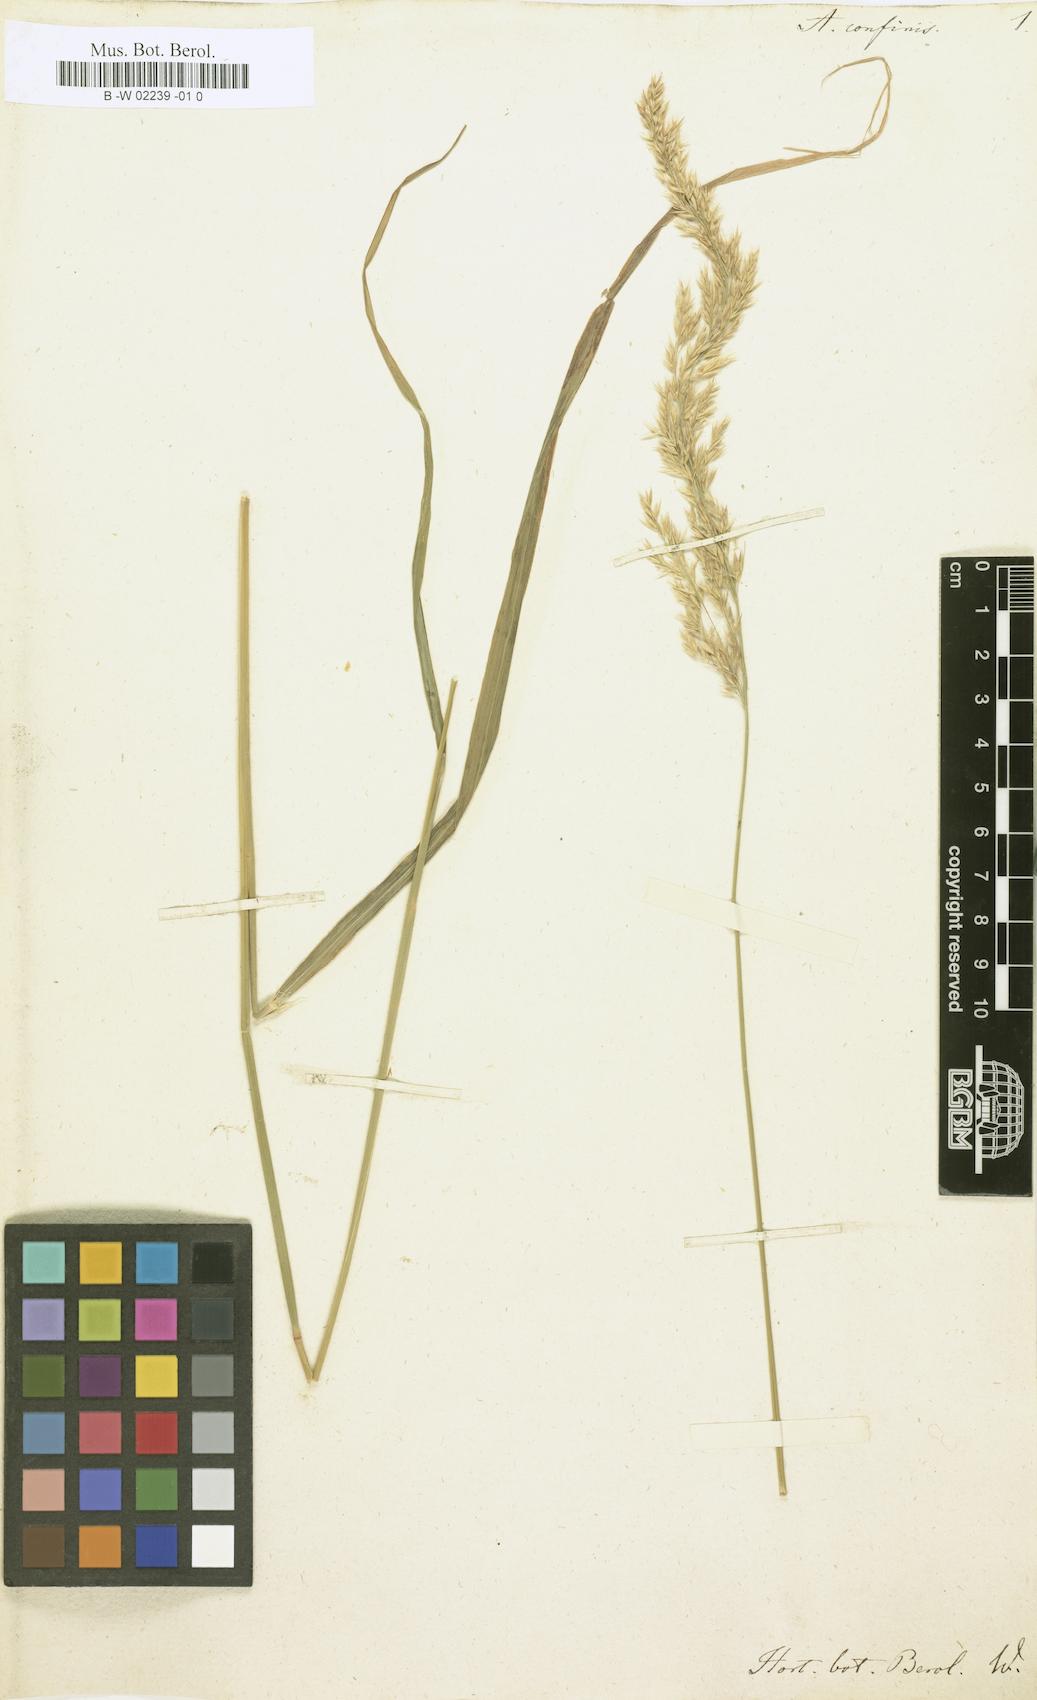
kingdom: Plantae
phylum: Tracheophyta
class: Liliopsida
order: Poales
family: Poaceae
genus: Calamagrostis
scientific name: Calamagrostis canadensis
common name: Canada bluejoint
